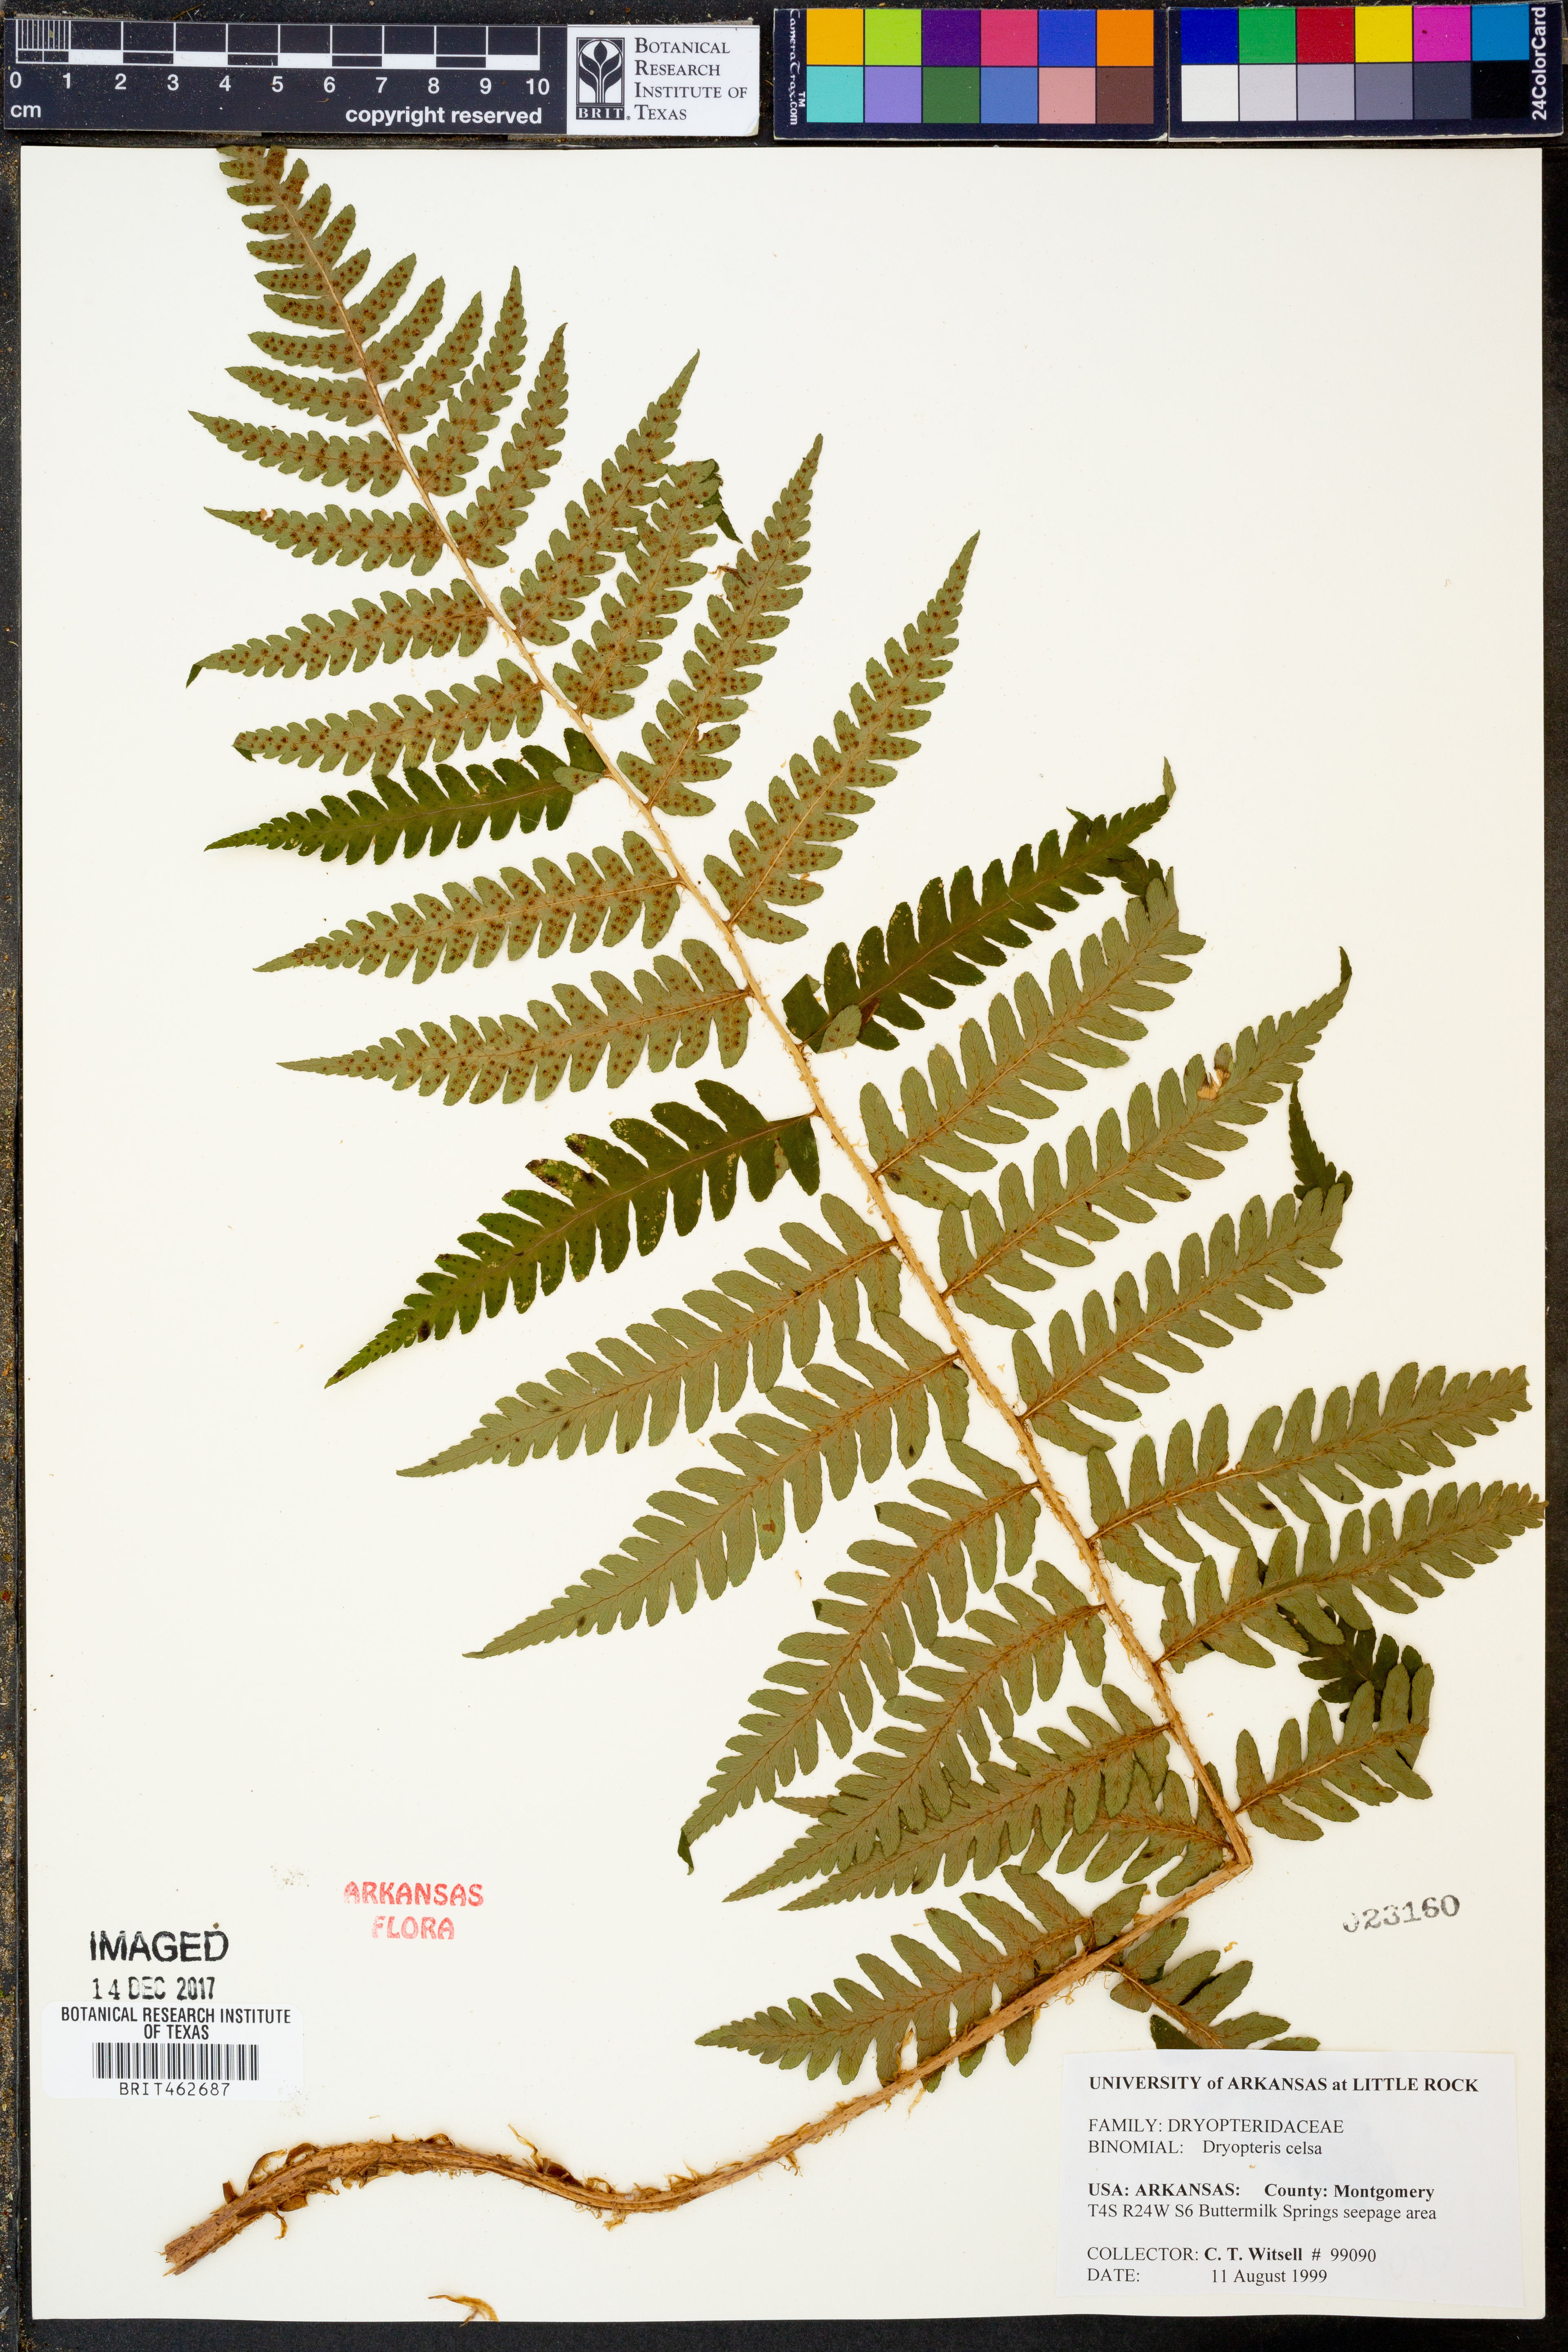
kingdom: Plantae
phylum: Tracheophyta
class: Polypodiopsida
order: Polypodiales
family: Dryopteridaceae
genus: Dryopteris
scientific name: Dryopteris celsa
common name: Log fern
